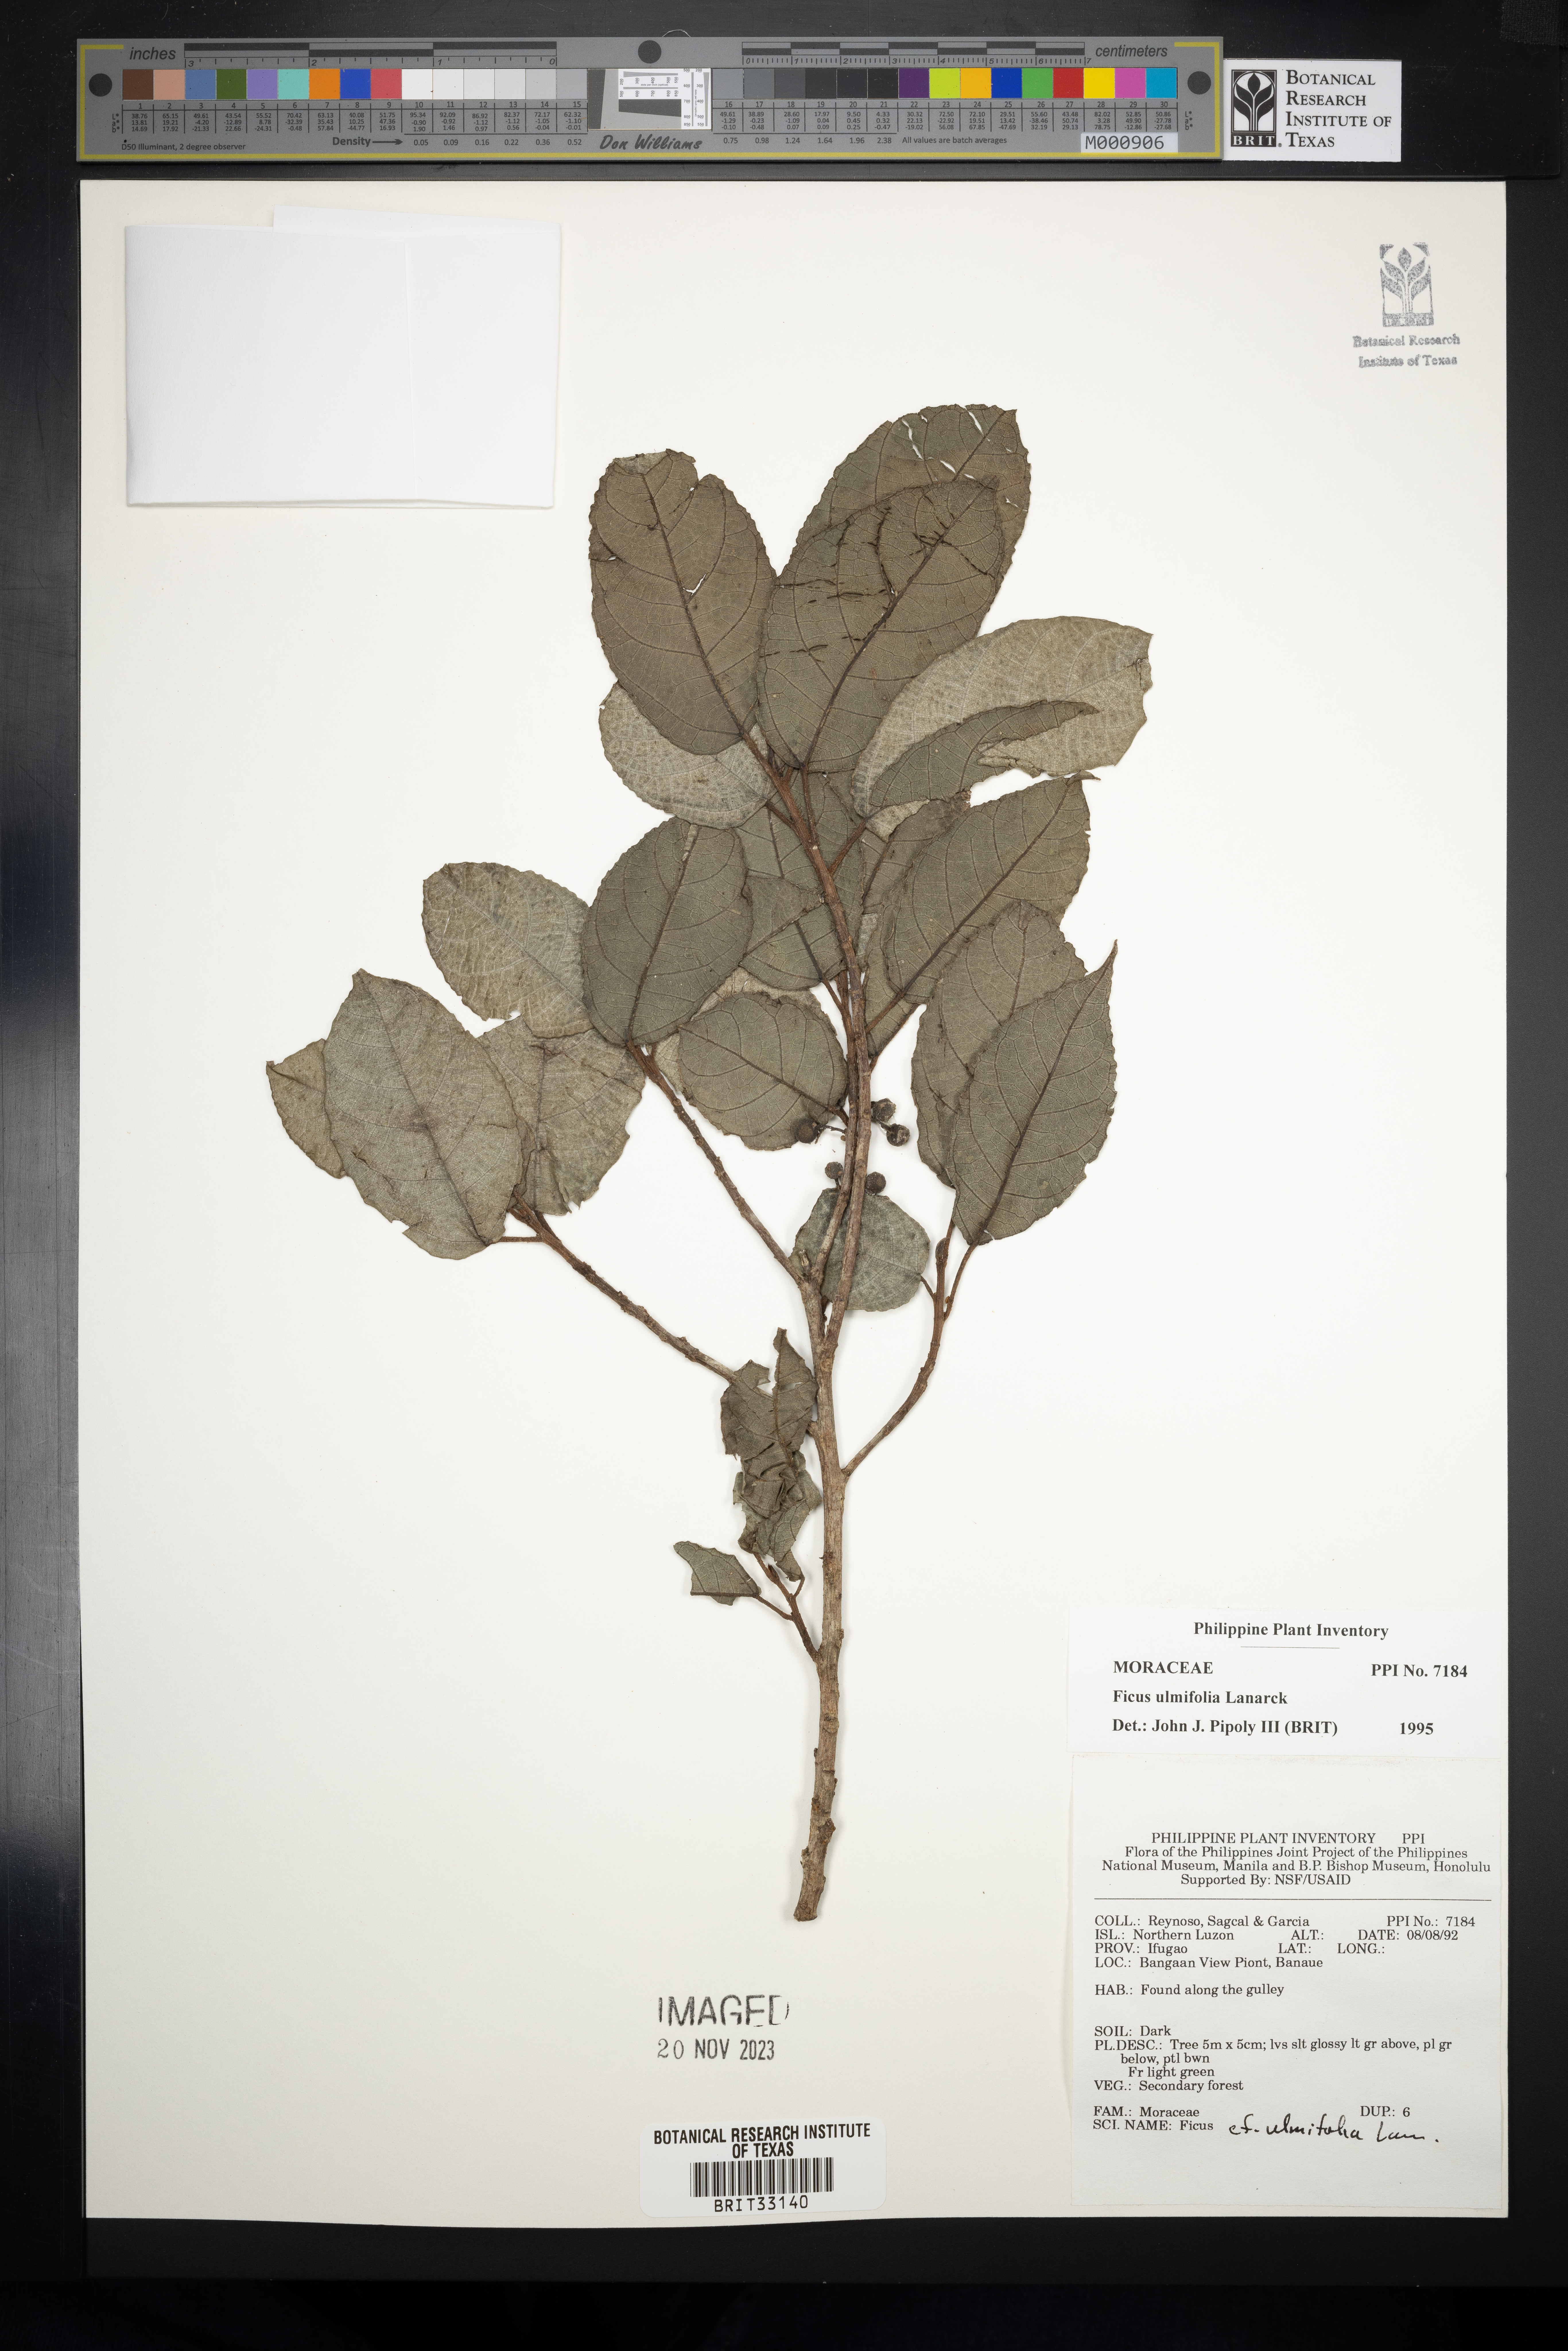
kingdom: Plantae
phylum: Tracheophyta
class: Magnoliopsida
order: Rosales
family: Moraceae
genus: Ficus
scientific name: Ficus ulmifolia
